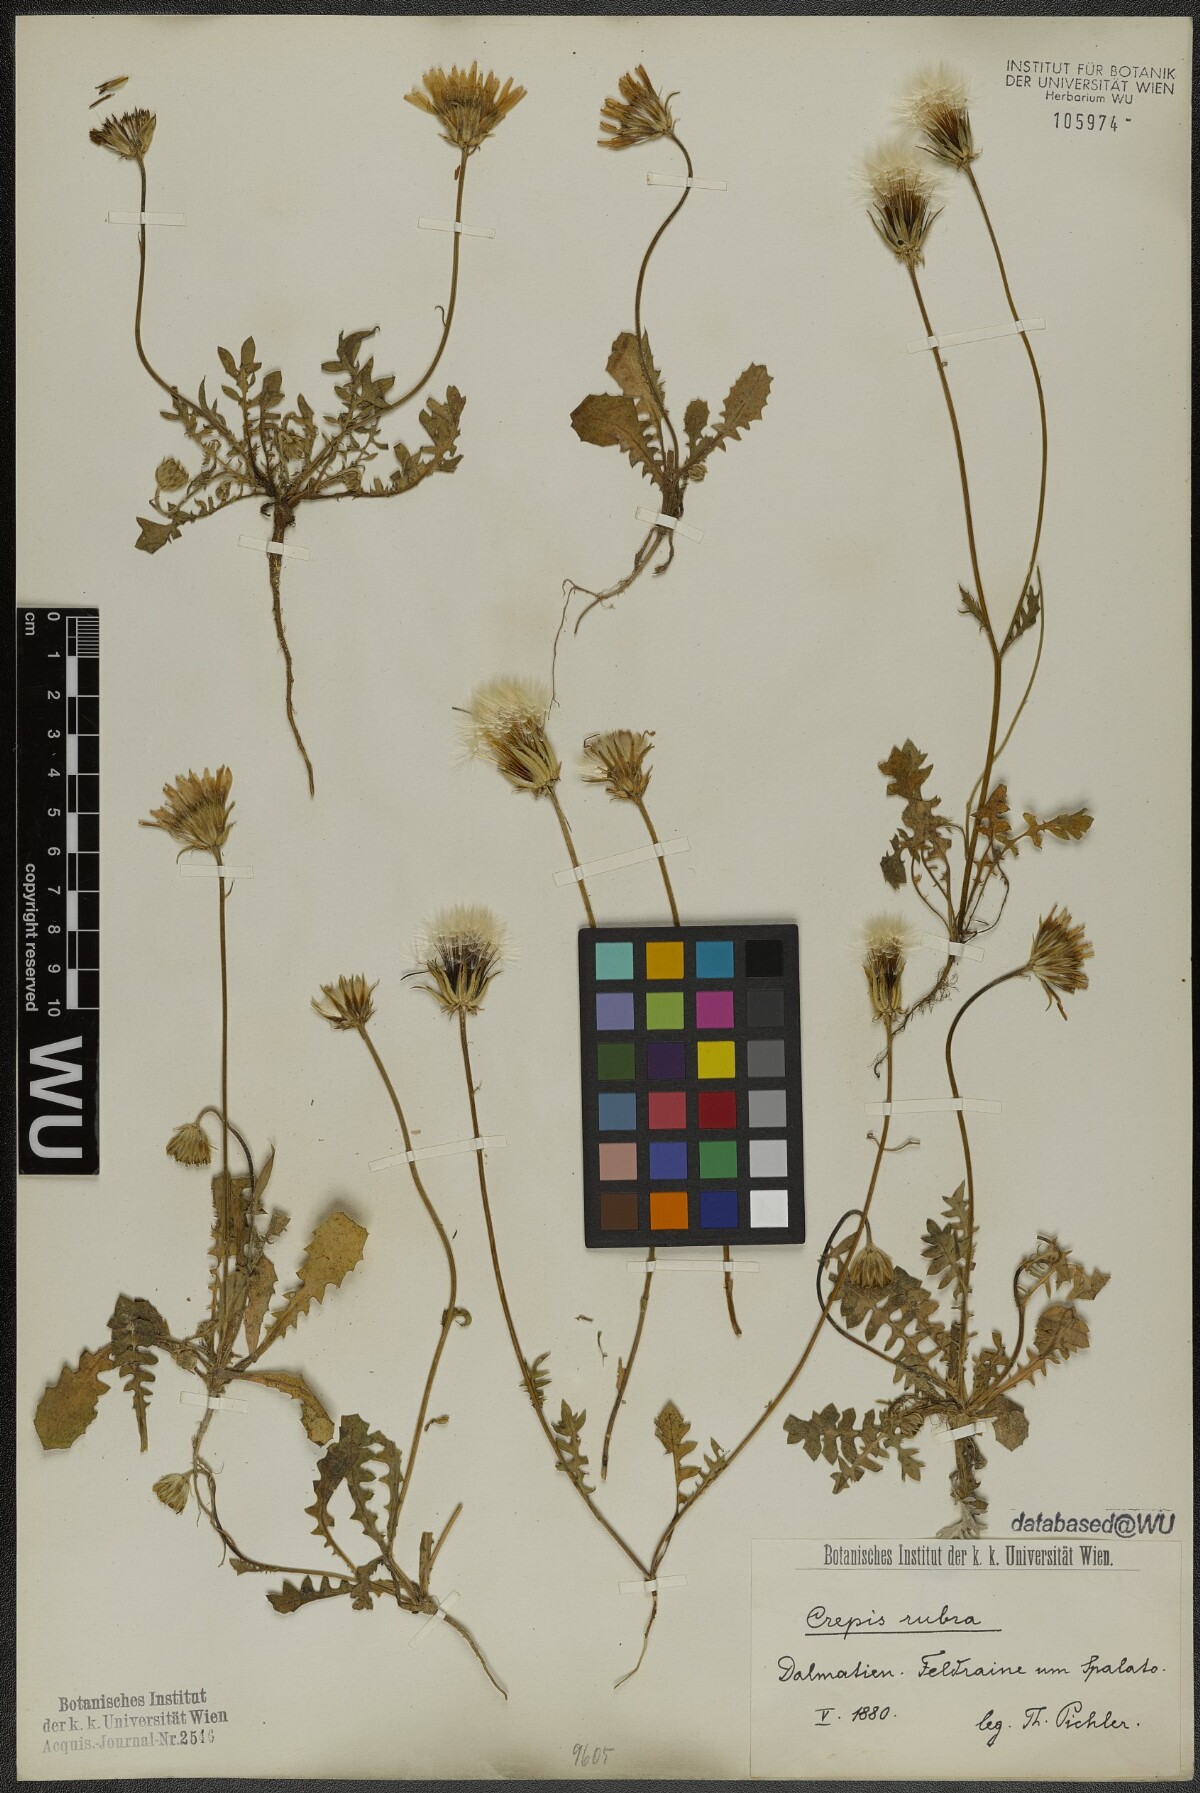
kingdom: Plantae
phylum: Tracheophyta
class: Magnoliopsida
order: Asterales
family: Asteraceae
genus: Crepis
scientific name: Crepis rubra
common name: Pink hawk's-beard
